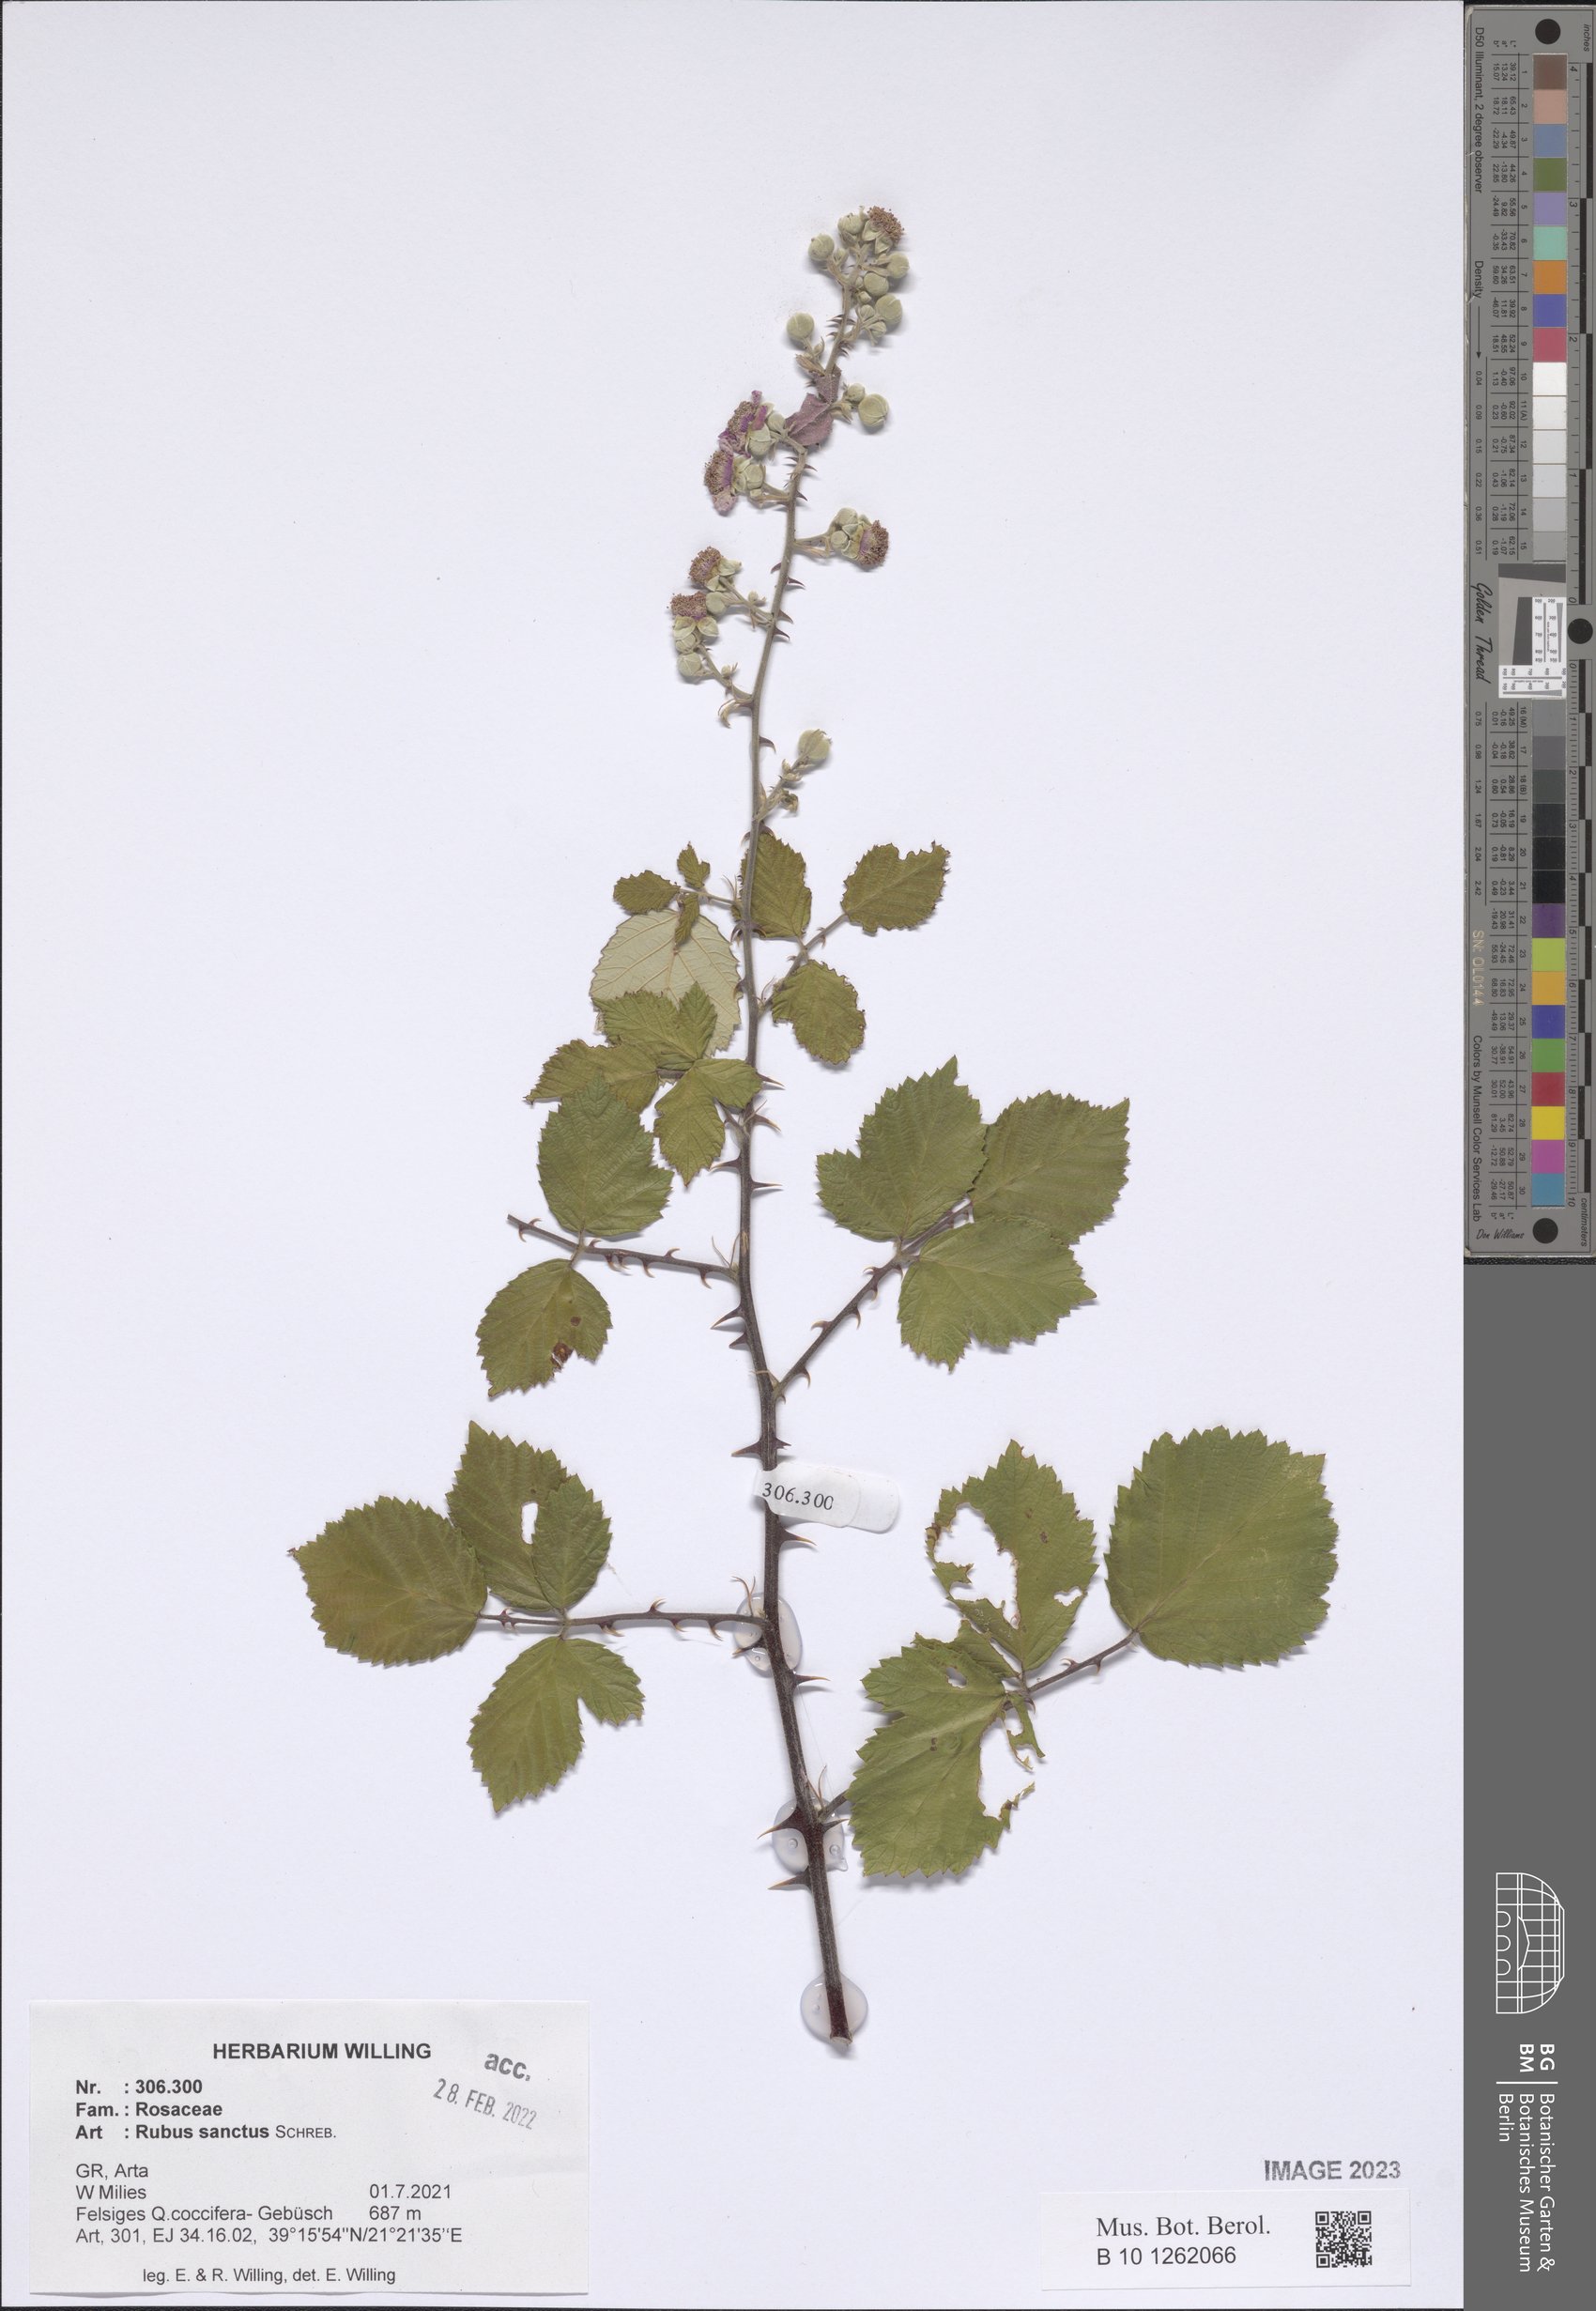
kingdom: Plantae
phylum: Tracheophyta
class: Magnoliopsida
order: Rosales
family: Rosaceae
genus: Rubus
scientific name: Rubus sanctus
